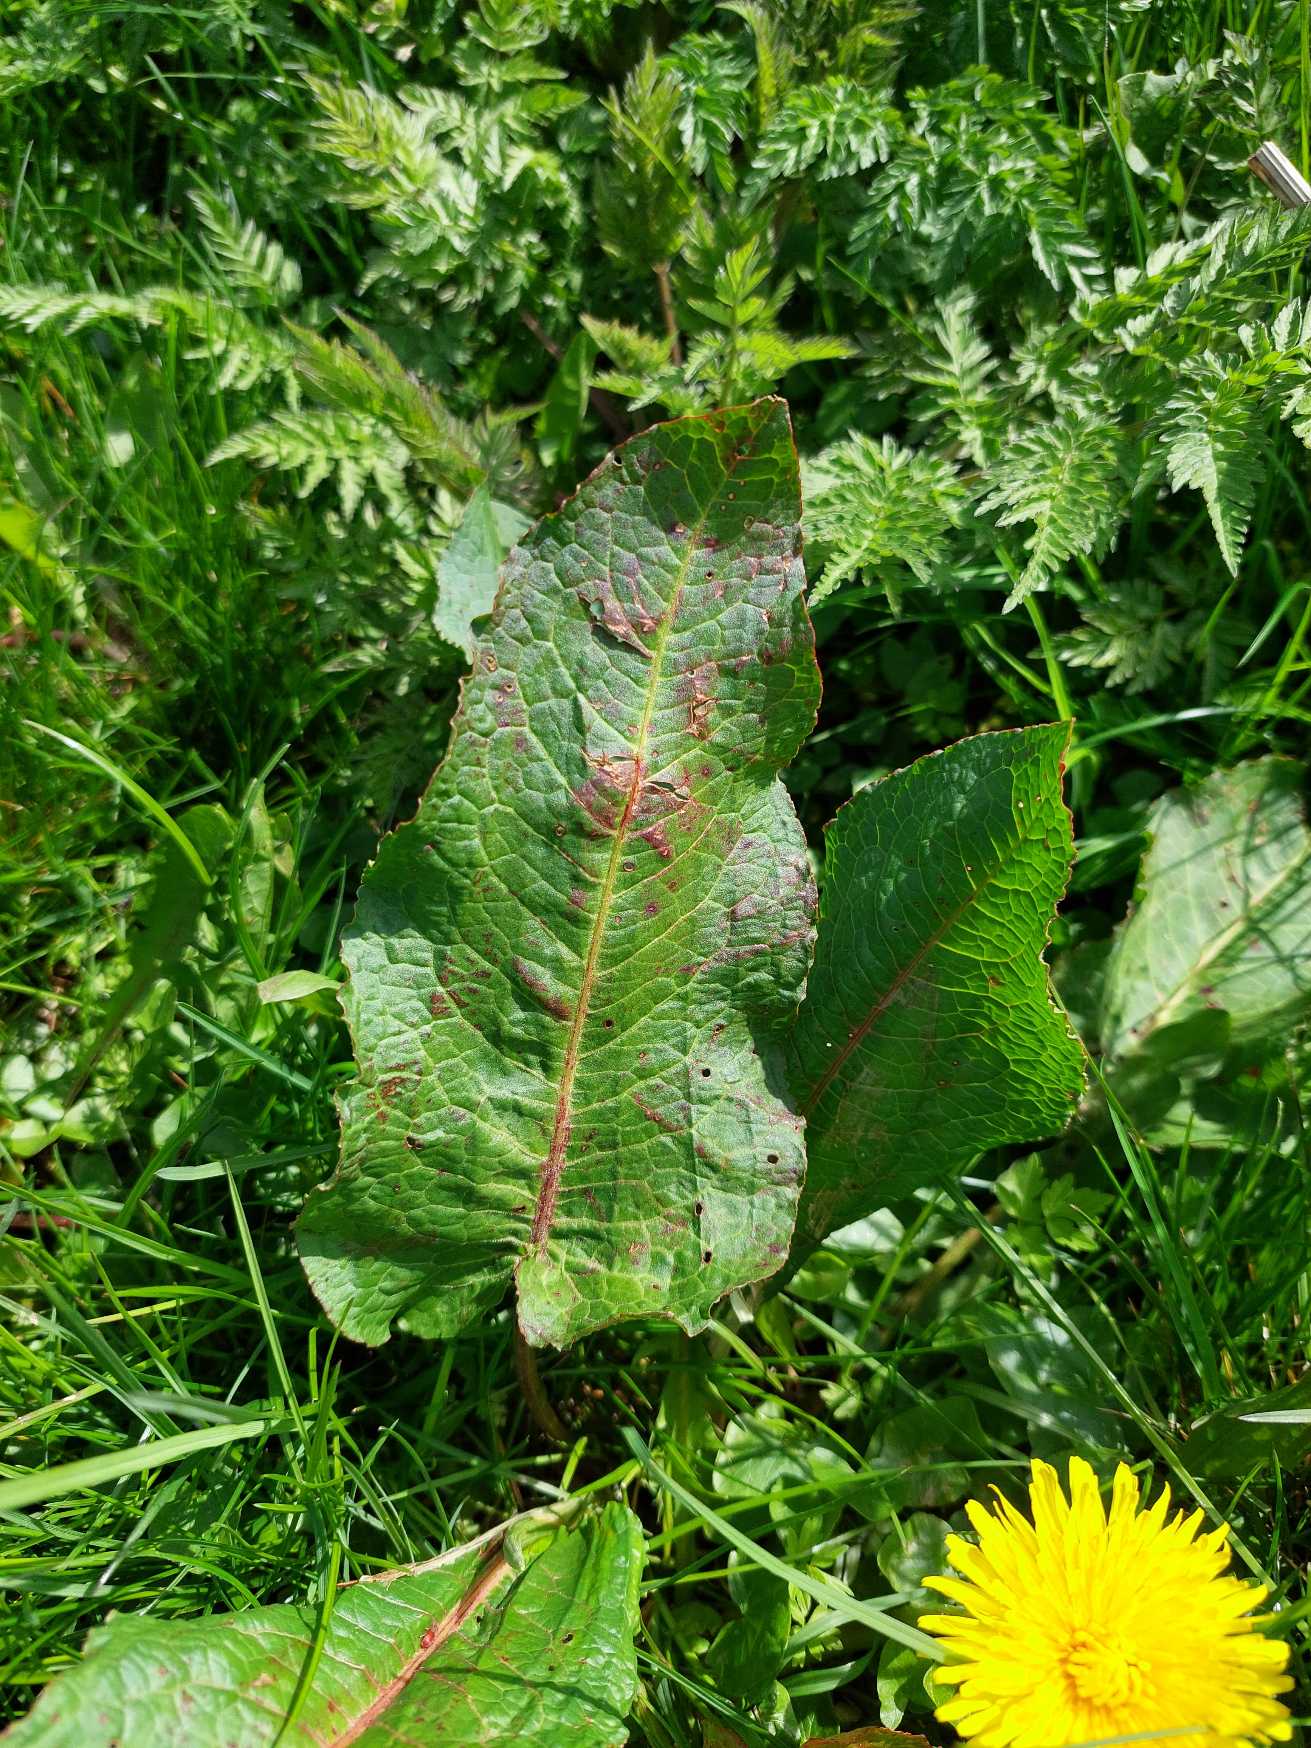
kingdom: Plantae
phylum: Tracheophyta
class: Magnoliopsida
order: Caryophyllales
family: Polygonaceae
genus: Rumex
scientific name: Rumex obtusifolius
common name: Butbladet skræppe
